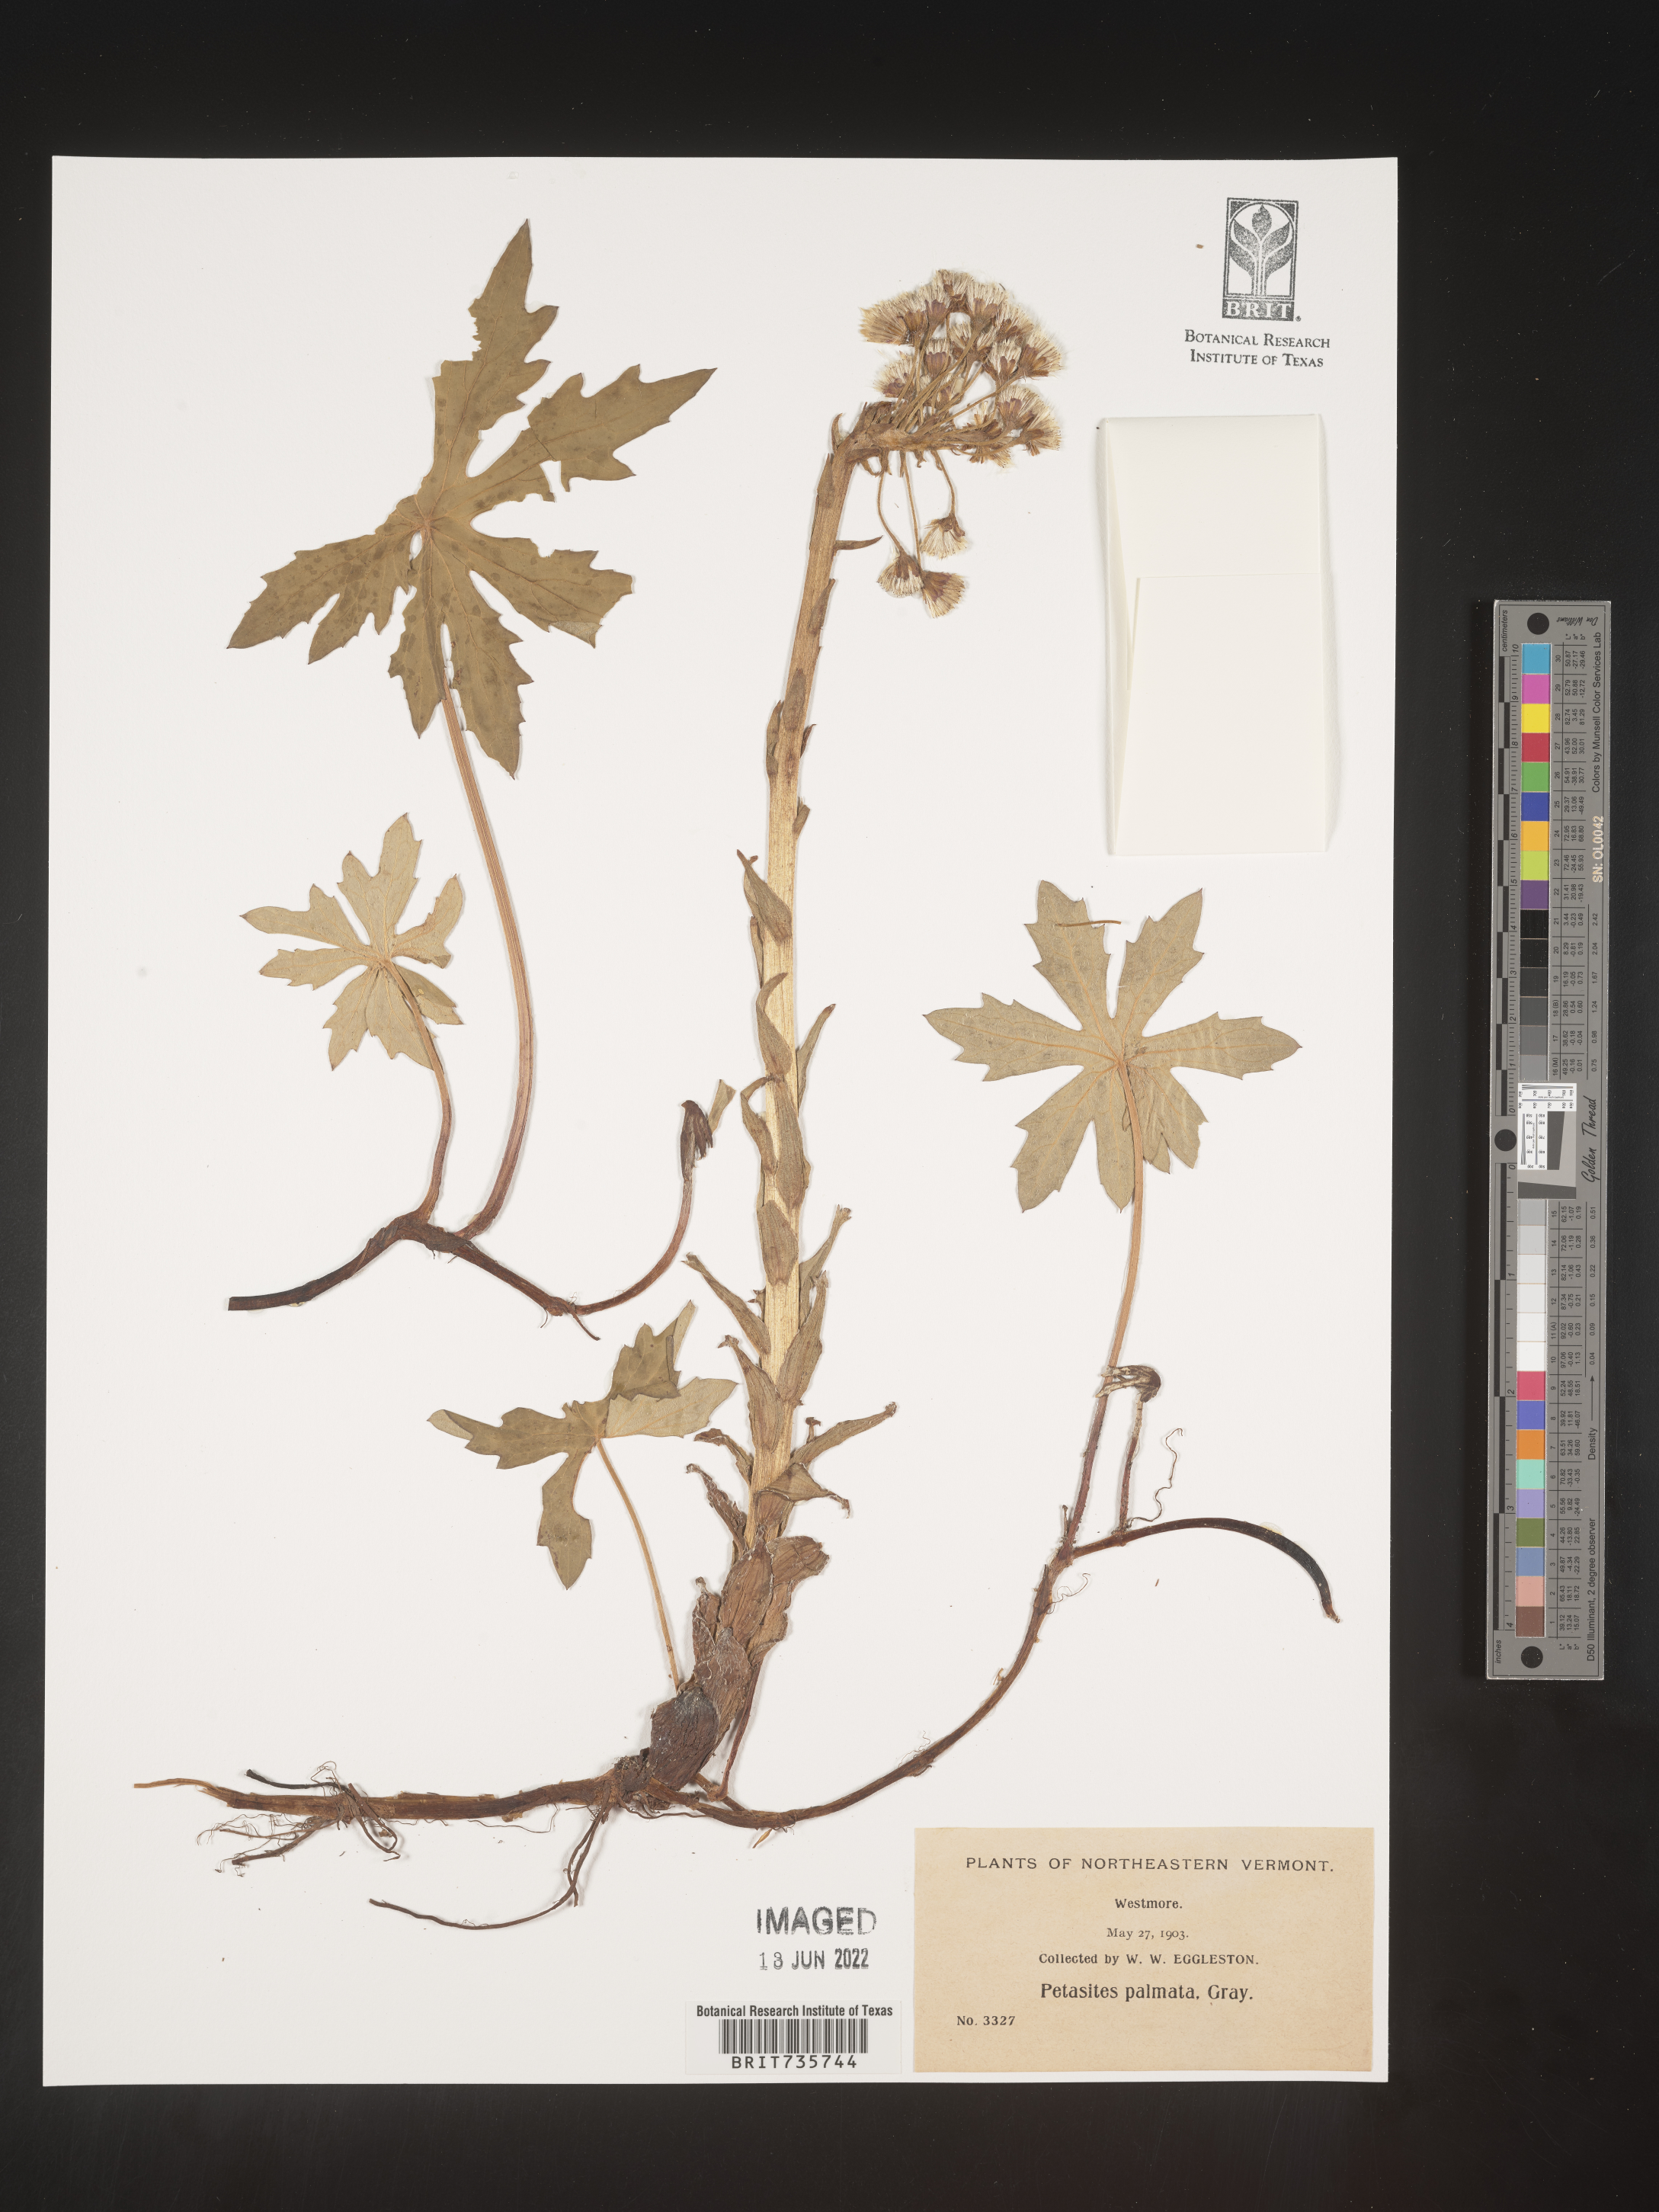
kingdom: Plantae
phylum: Tracheophyta
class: Magnoliopsida
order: Asterales
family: Asteraceae
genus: Petasites
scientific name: Petasites frigidus
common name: Arctic butterbur
